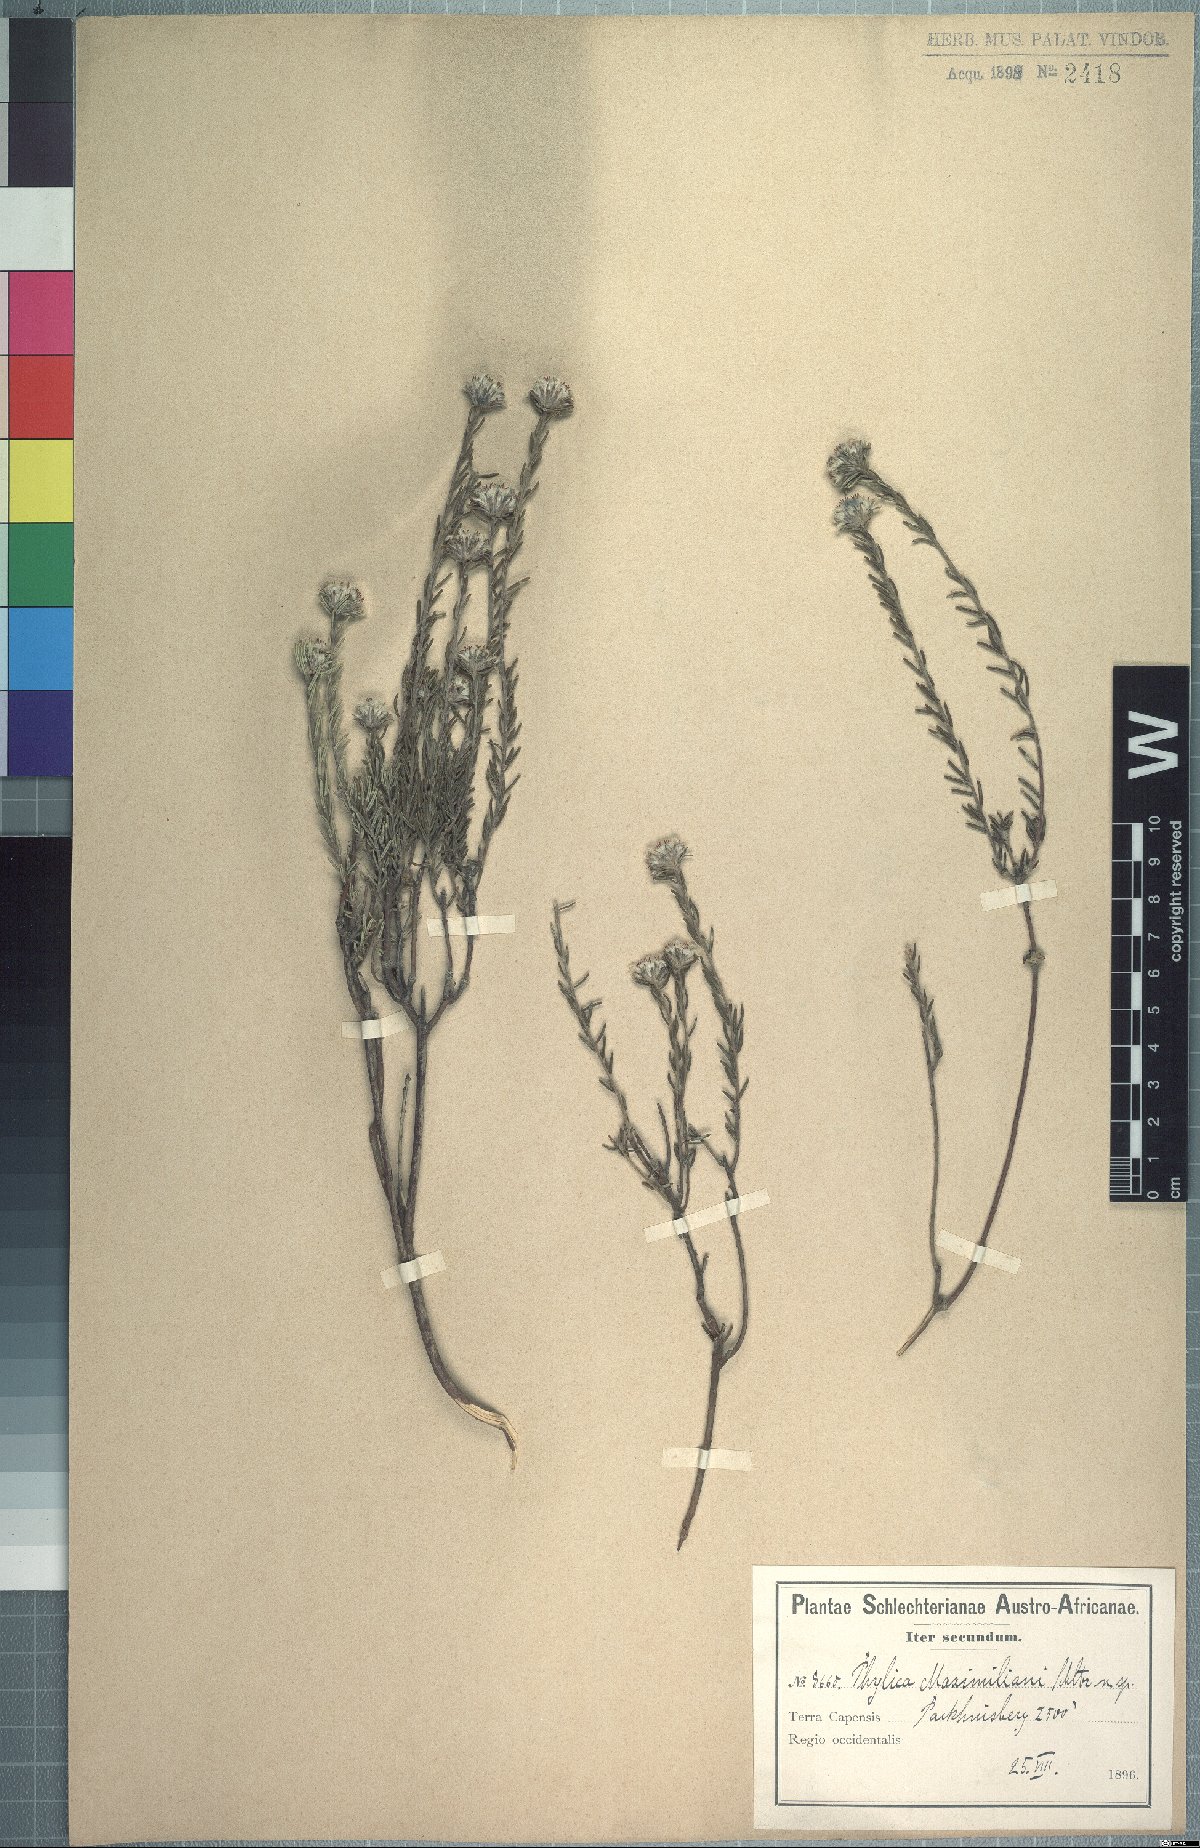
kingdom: Plantae
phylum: Tracheophyta
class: Magnoliopsida
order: Rosales
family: Rhamnaceae
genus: Phylica
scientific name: Phylica maximiliani
